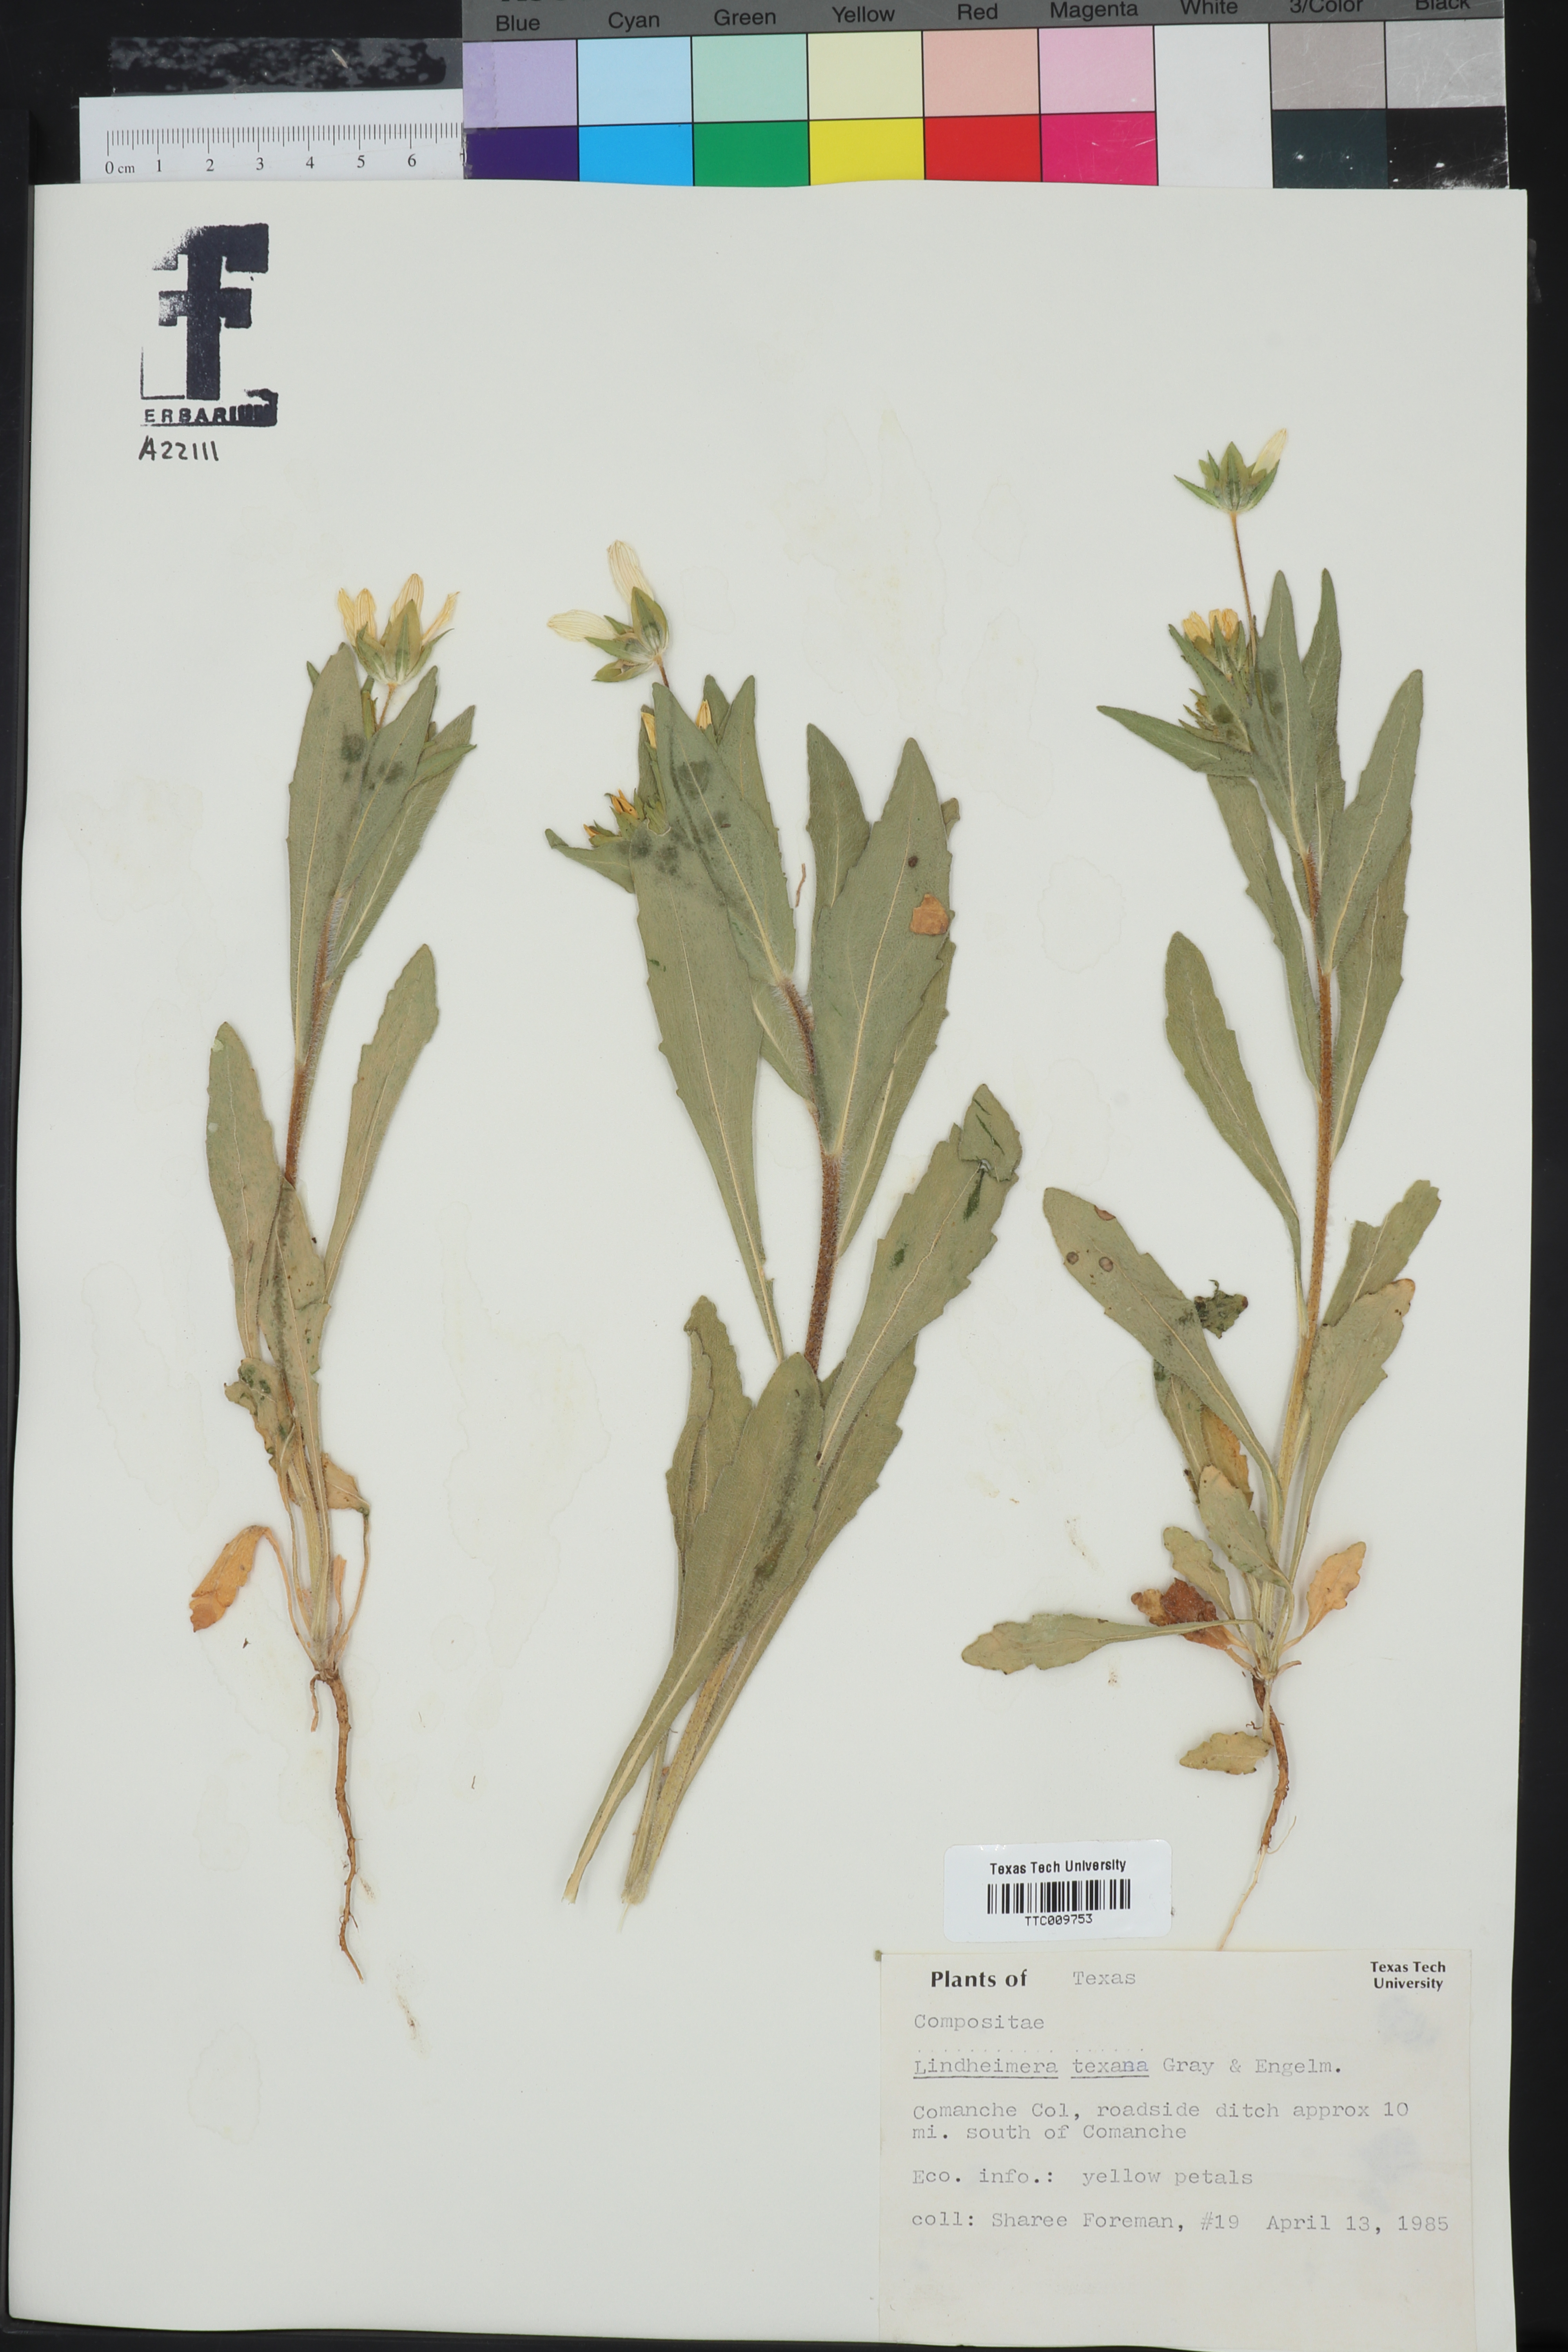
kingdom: Plantae
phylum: Tracheophyta
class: Magnoliopsida
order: Asterales
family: Asteraceae
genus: Lindheimera
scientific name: Lindheimera texana
